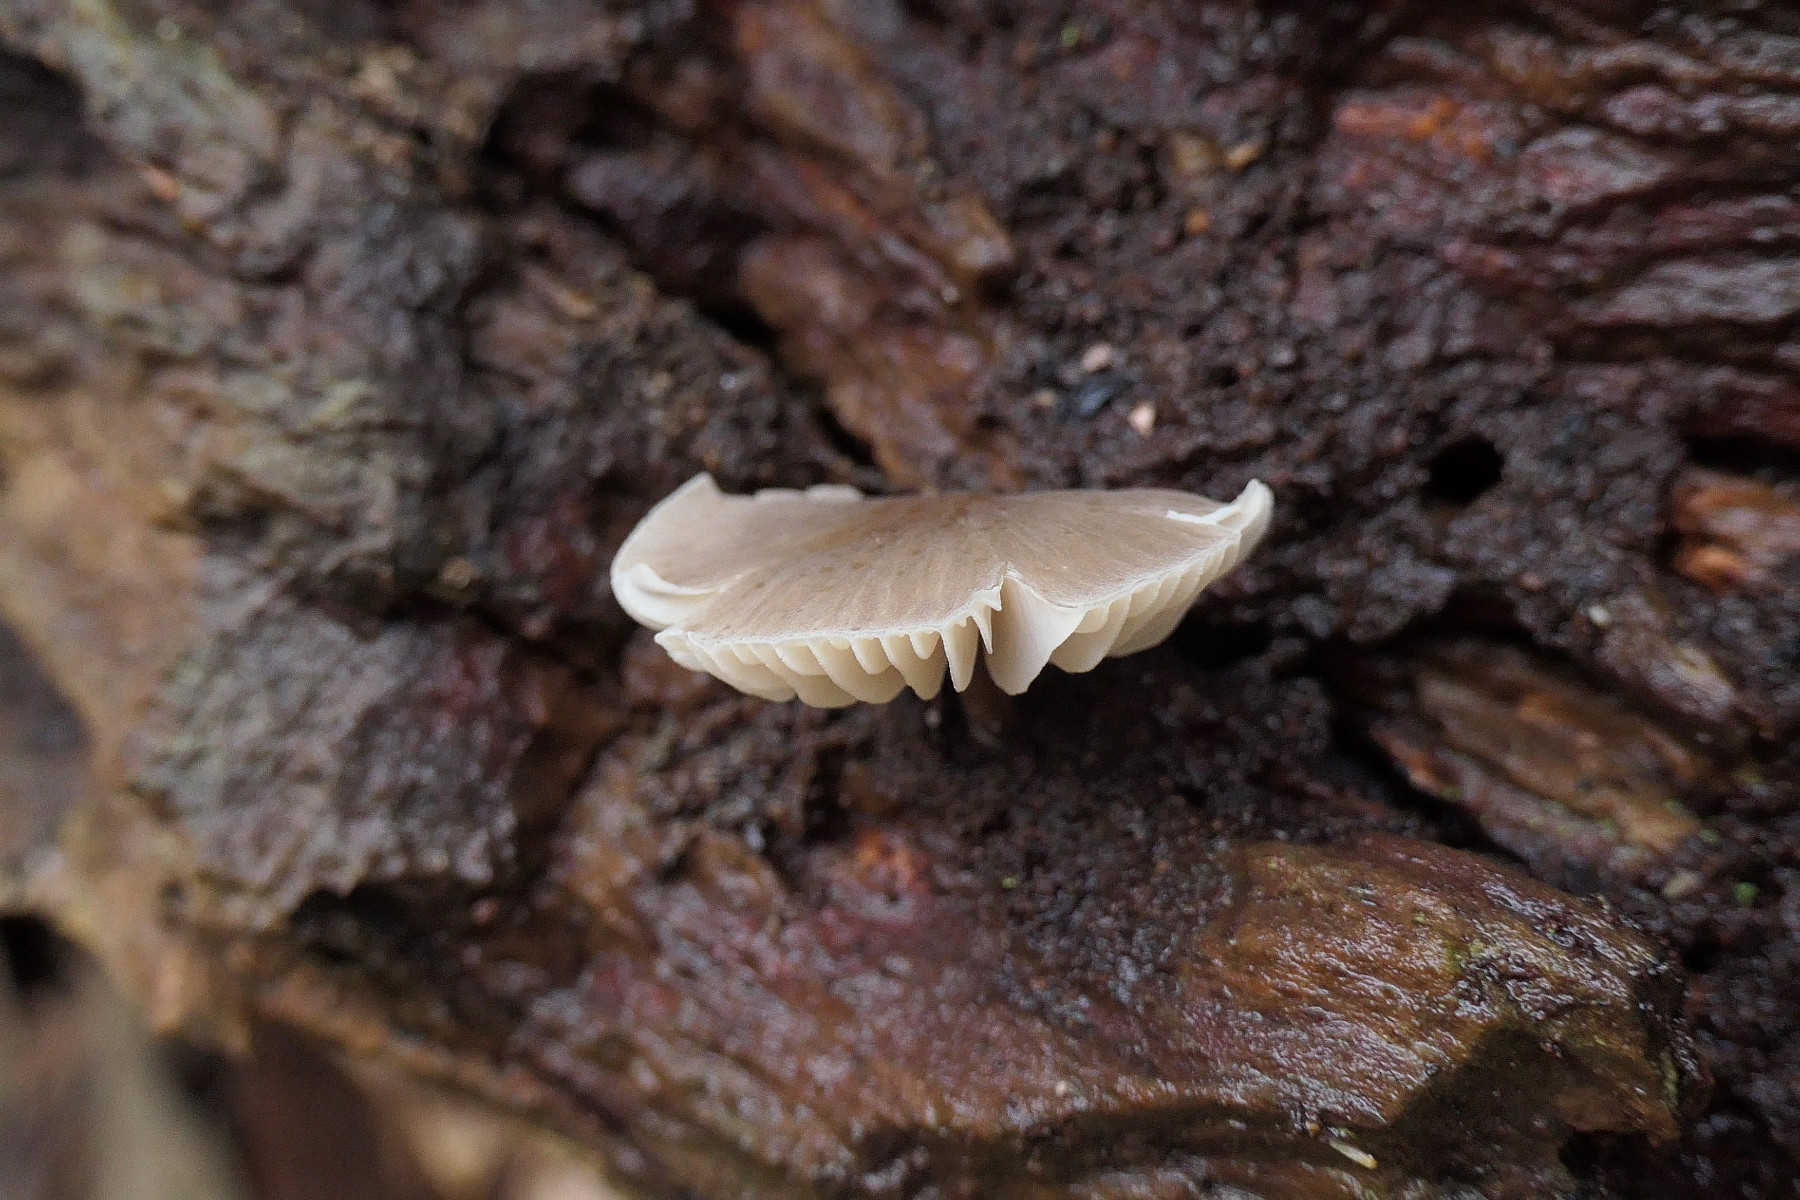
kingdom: Fungi
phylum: Basidiomycota
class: Agaricomycetes
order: Agaricales
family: Mycenaceae
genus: Mycena
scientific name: Mycena galericulata
